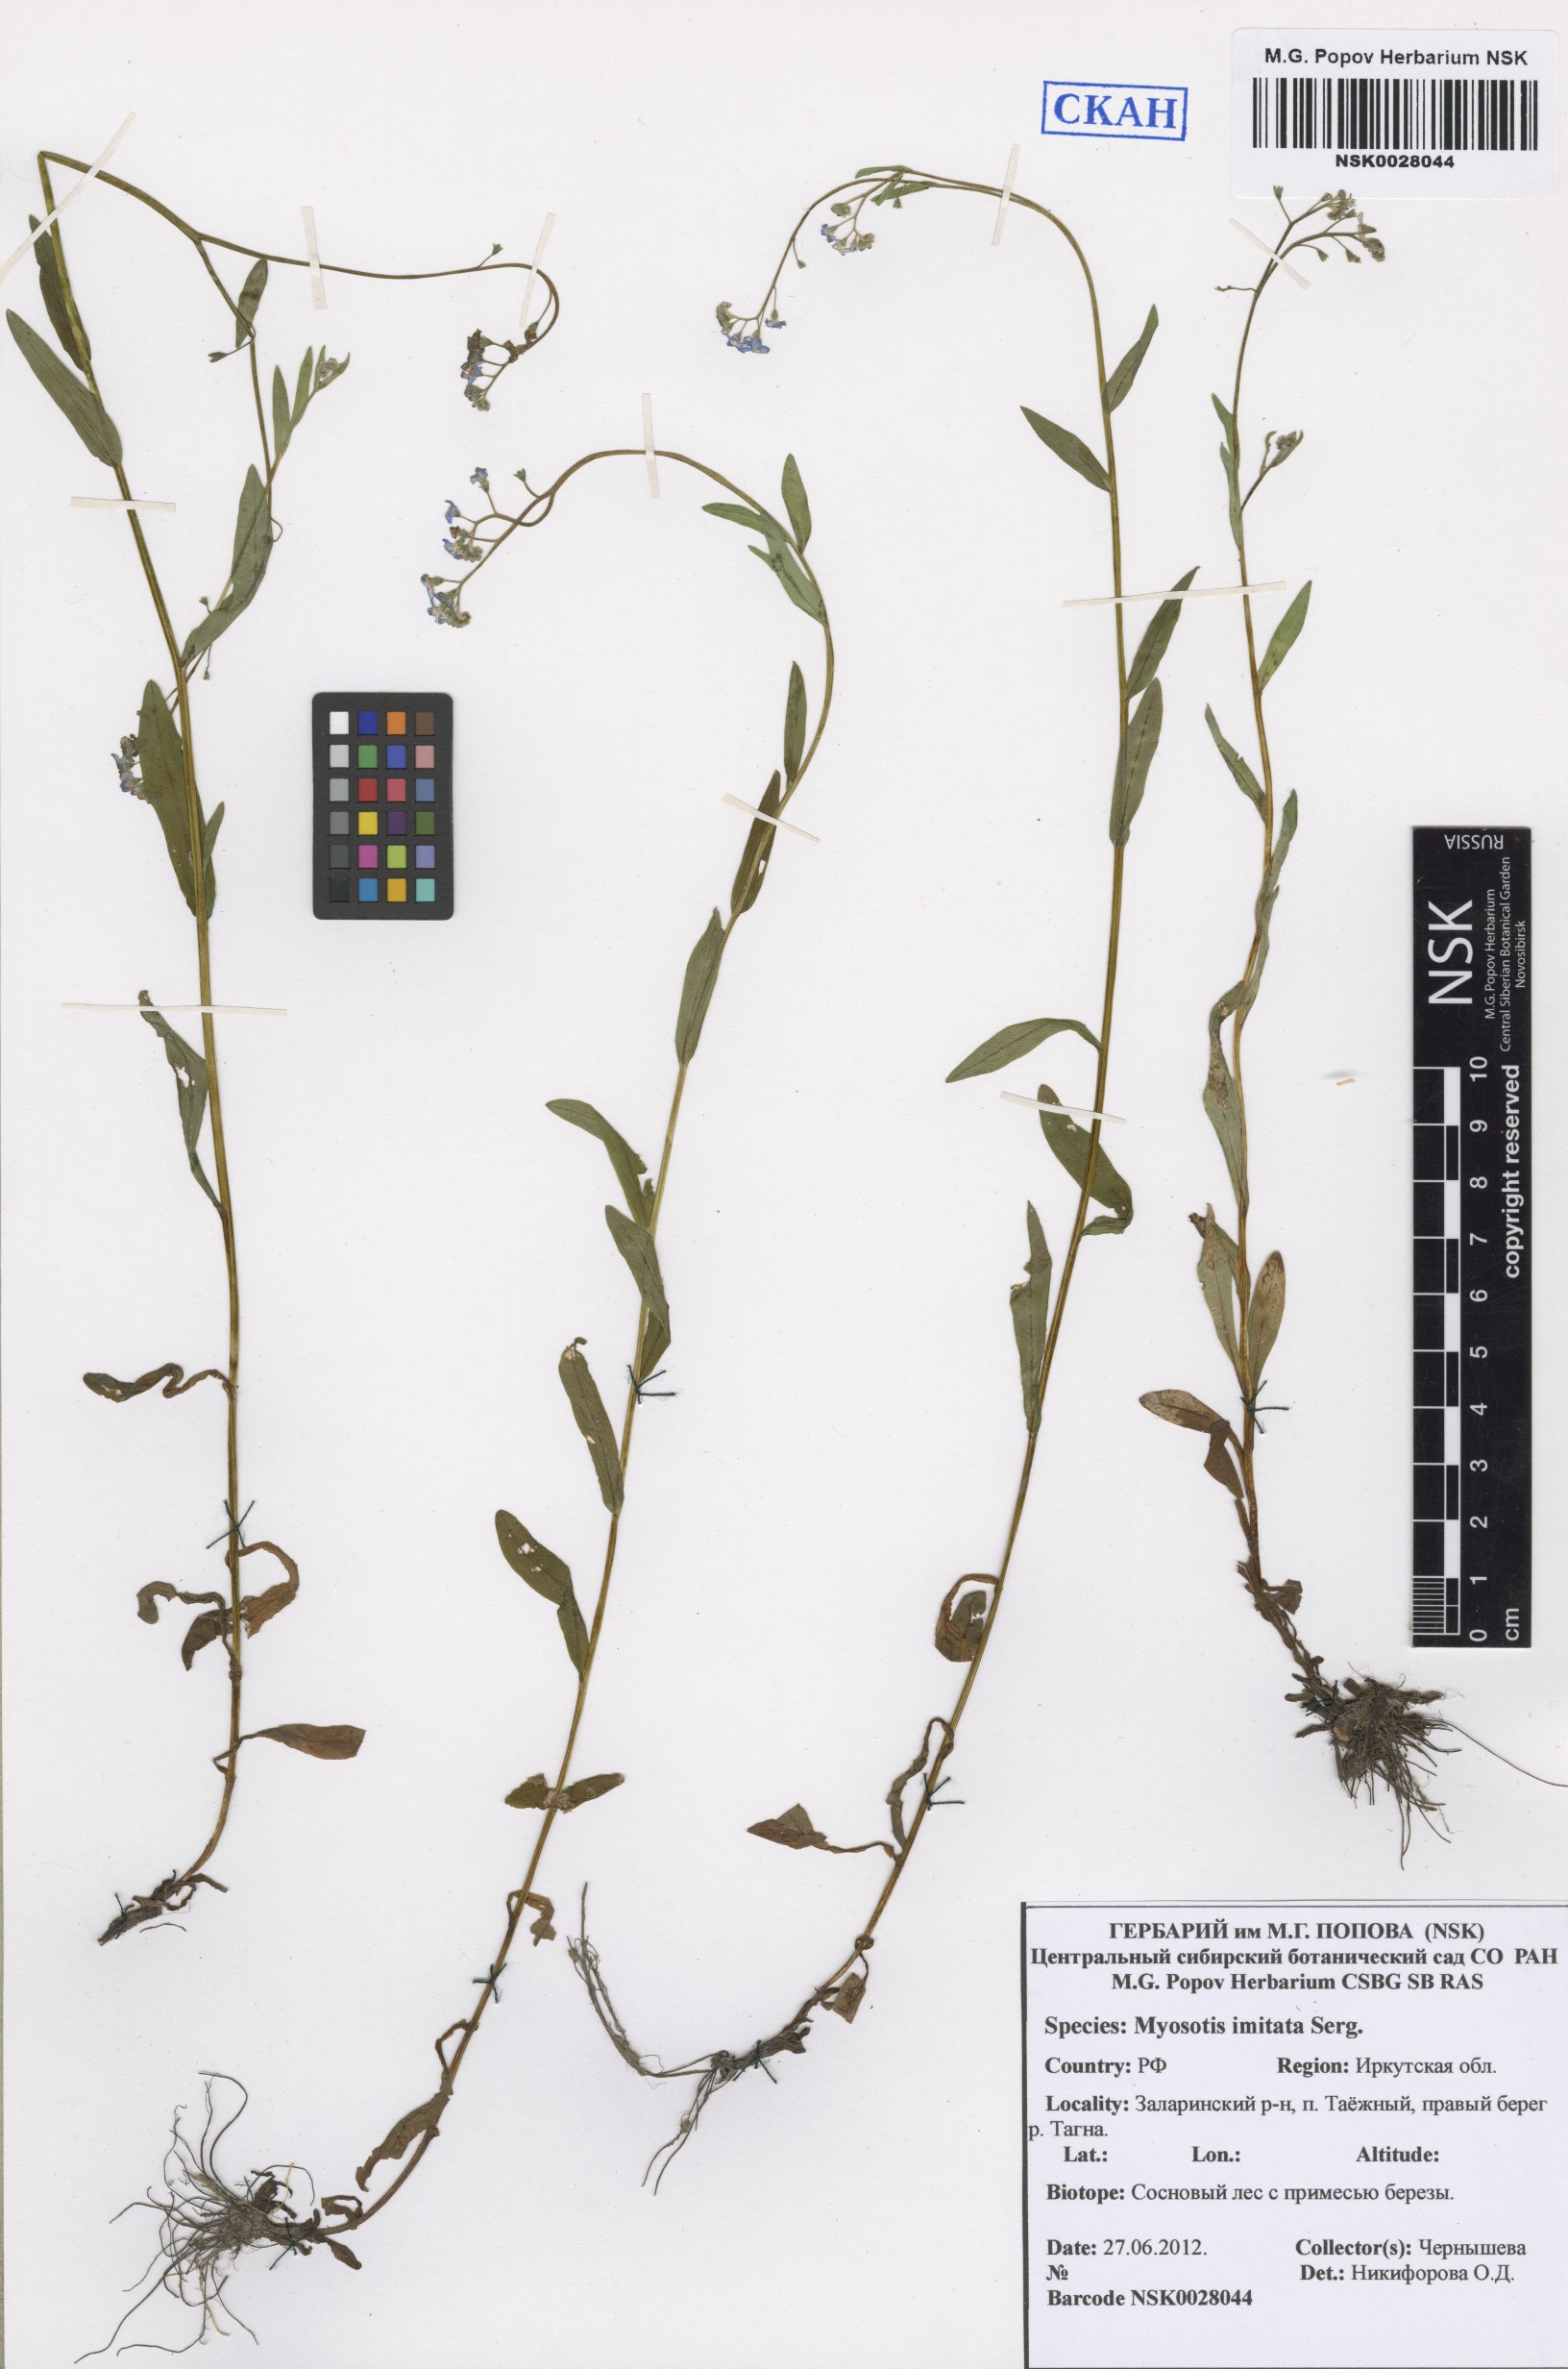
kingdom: Plantae
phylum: Tracheophyta
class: Magnoliopsida
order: Boraginales
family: Boraginaceae
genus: Myosotis
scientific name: Myosotis imitata
